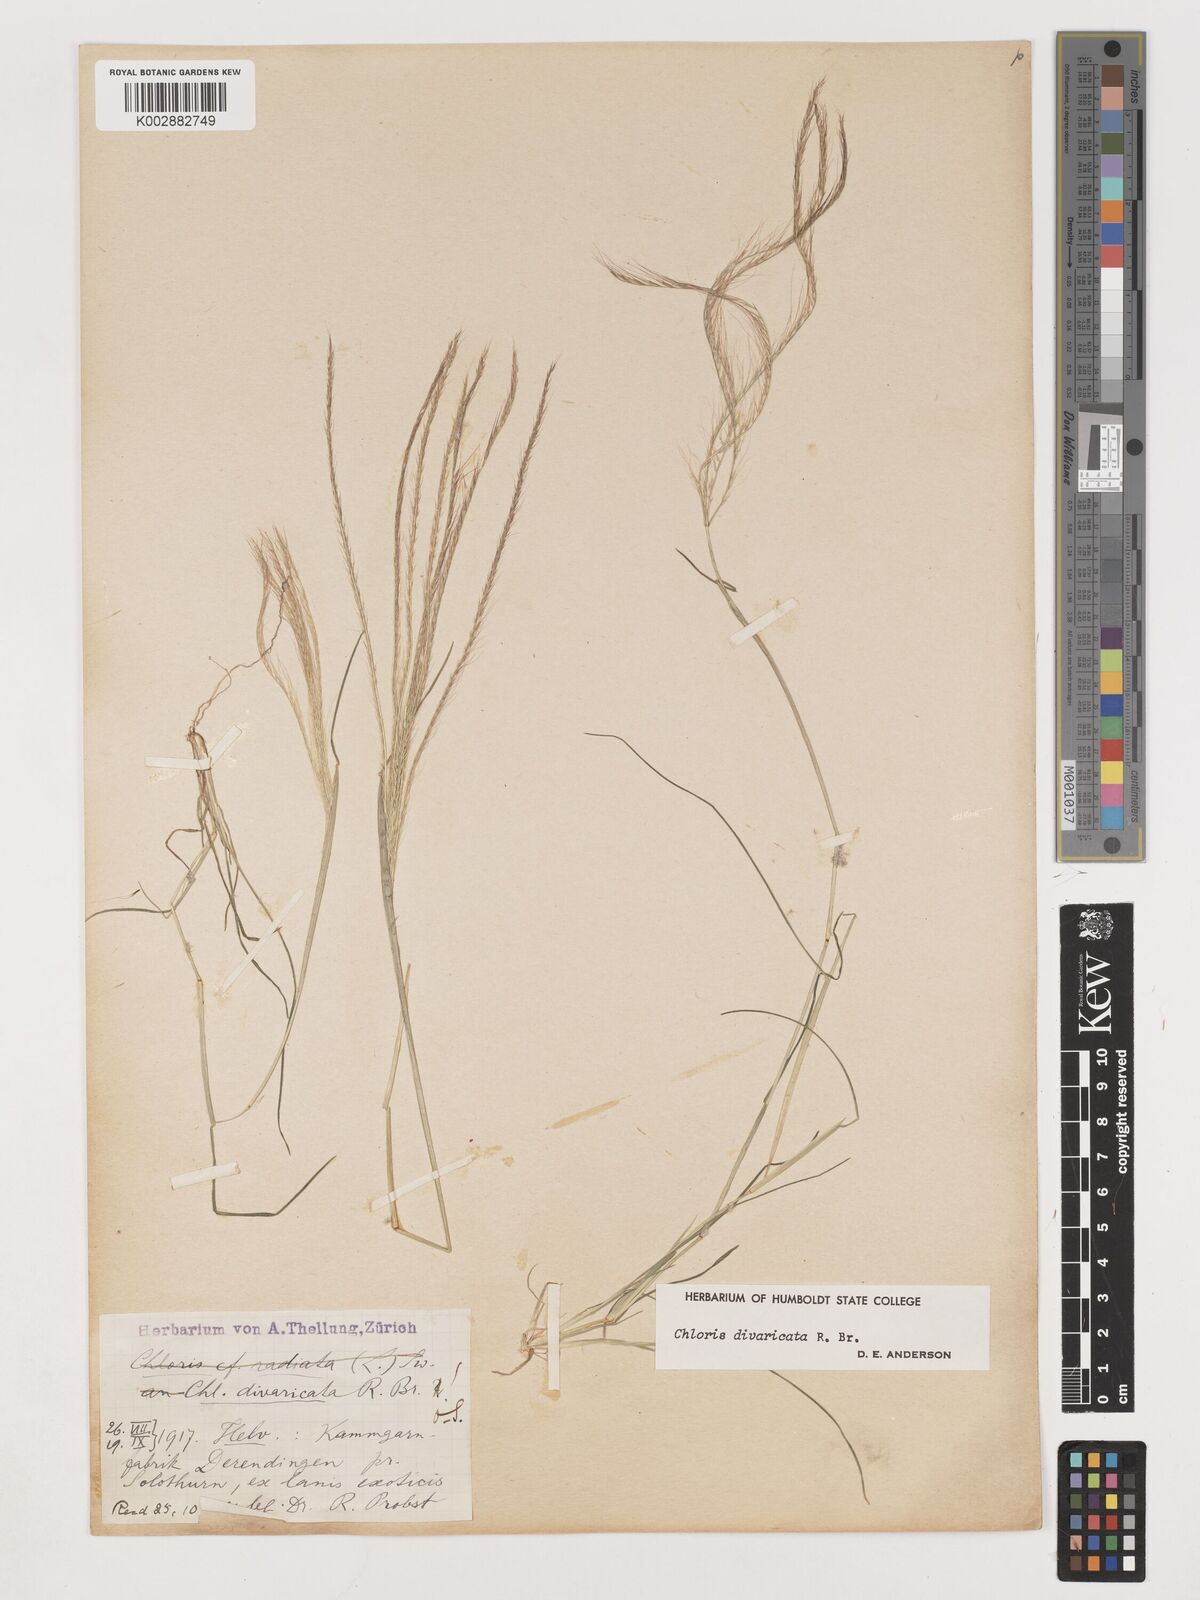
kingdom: Plantae
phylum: Tracheophyta
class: Liliopsida
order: Poales
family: Poaceae
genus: Chloris
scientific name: Chloris divaricata
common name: Spreading windmill grass
